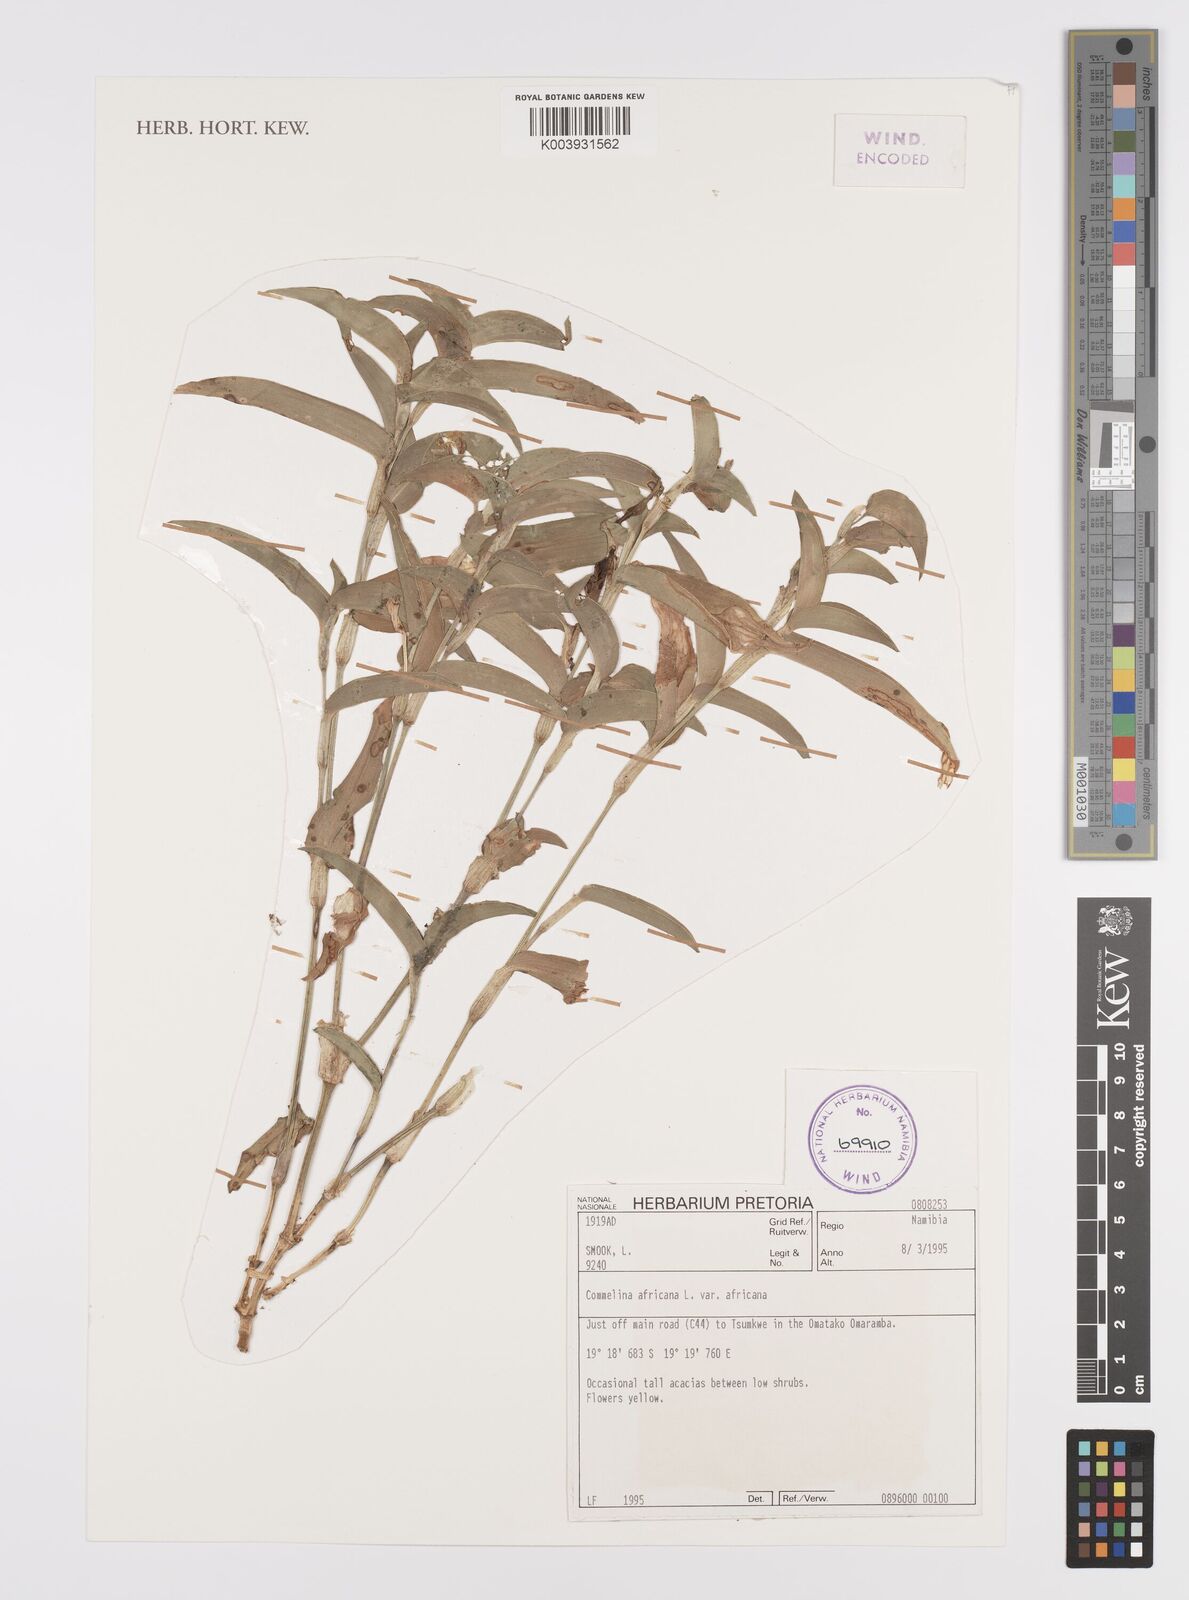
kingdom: Plantae
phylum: Tracheophyta
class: Liliopsida
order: Commelinales
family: Commelinaceae
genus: Commelina
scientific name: Commelina africana
